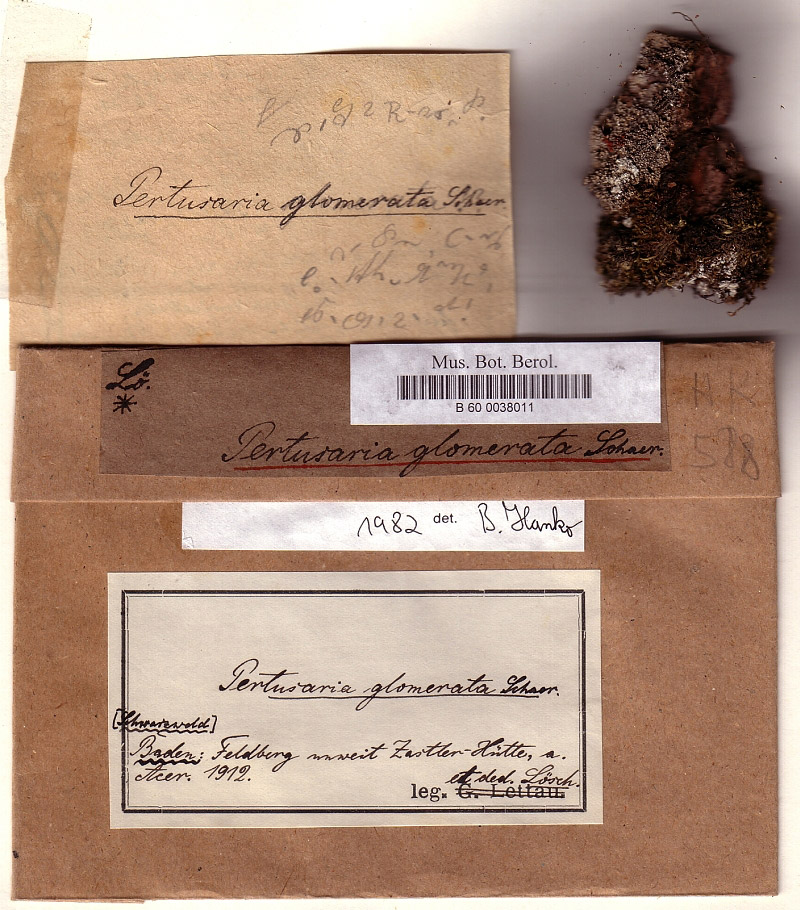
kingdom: Fungi
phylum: Ascomycota
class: Lecanoromycetes
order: Pertusariales
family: Pertusariaceae
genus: Pertusaria
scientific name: Pertusaria glomerata
